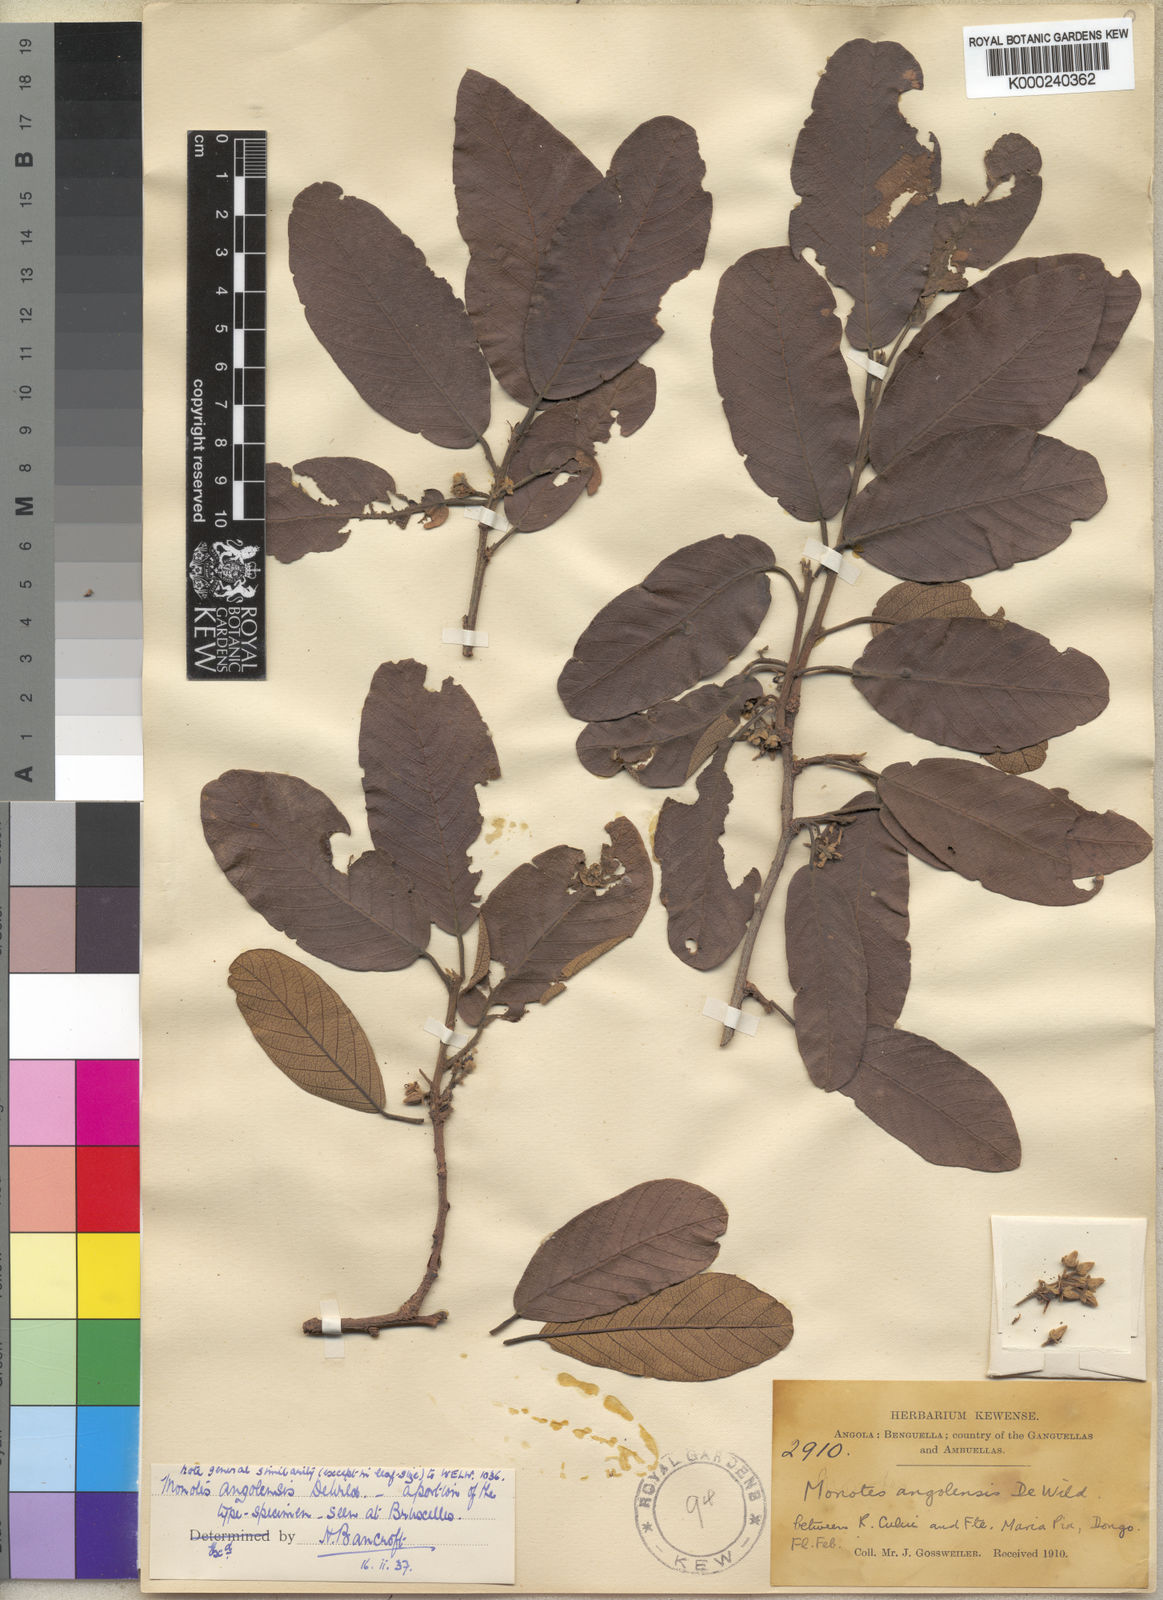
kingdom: Plantae
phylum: Tracheophyta
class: Magnoliopsida
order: Malvales
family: Dipterocarpaceae
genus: Monotes
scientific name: Monotes hypoleucus
